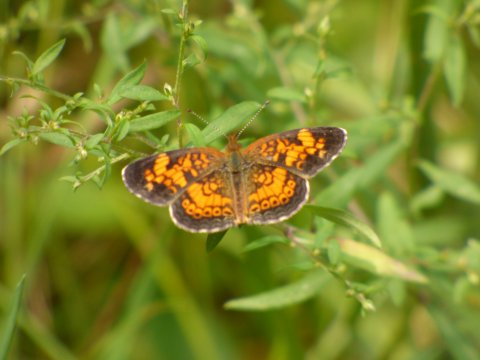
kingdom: Animalia
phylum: Arthropoda
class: Insecta
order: Lepidoptera
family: Nymphalidae
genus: Phyciodes
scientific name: Phyciodes tharos
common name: Pearl Crescent
